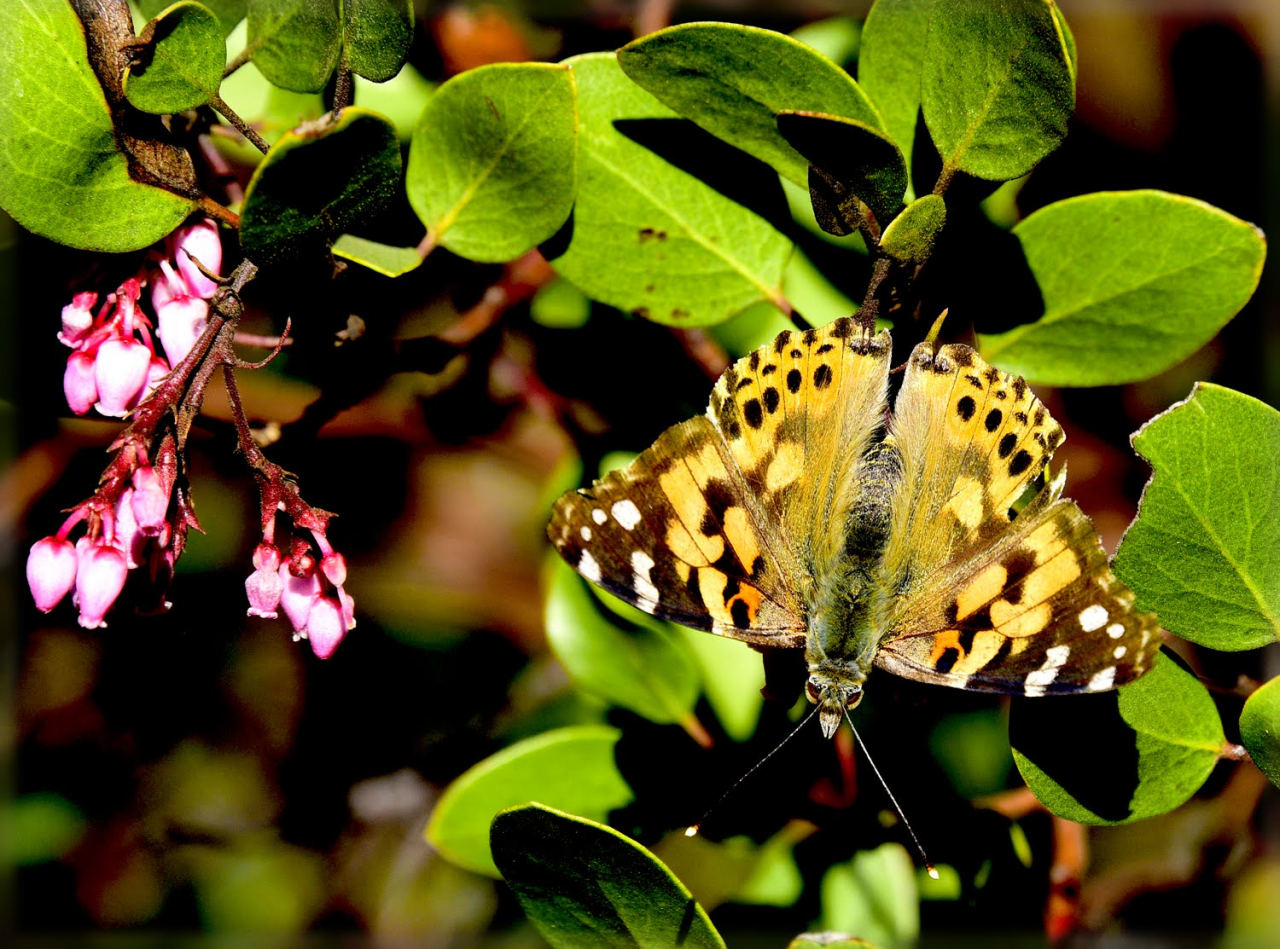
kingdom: Animalia
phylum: Arthropoda
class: Insecta
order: Lepidoptera
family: Nymphalidae
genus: Vanessa
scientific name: Vanessa cardui
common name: Painted Lady
